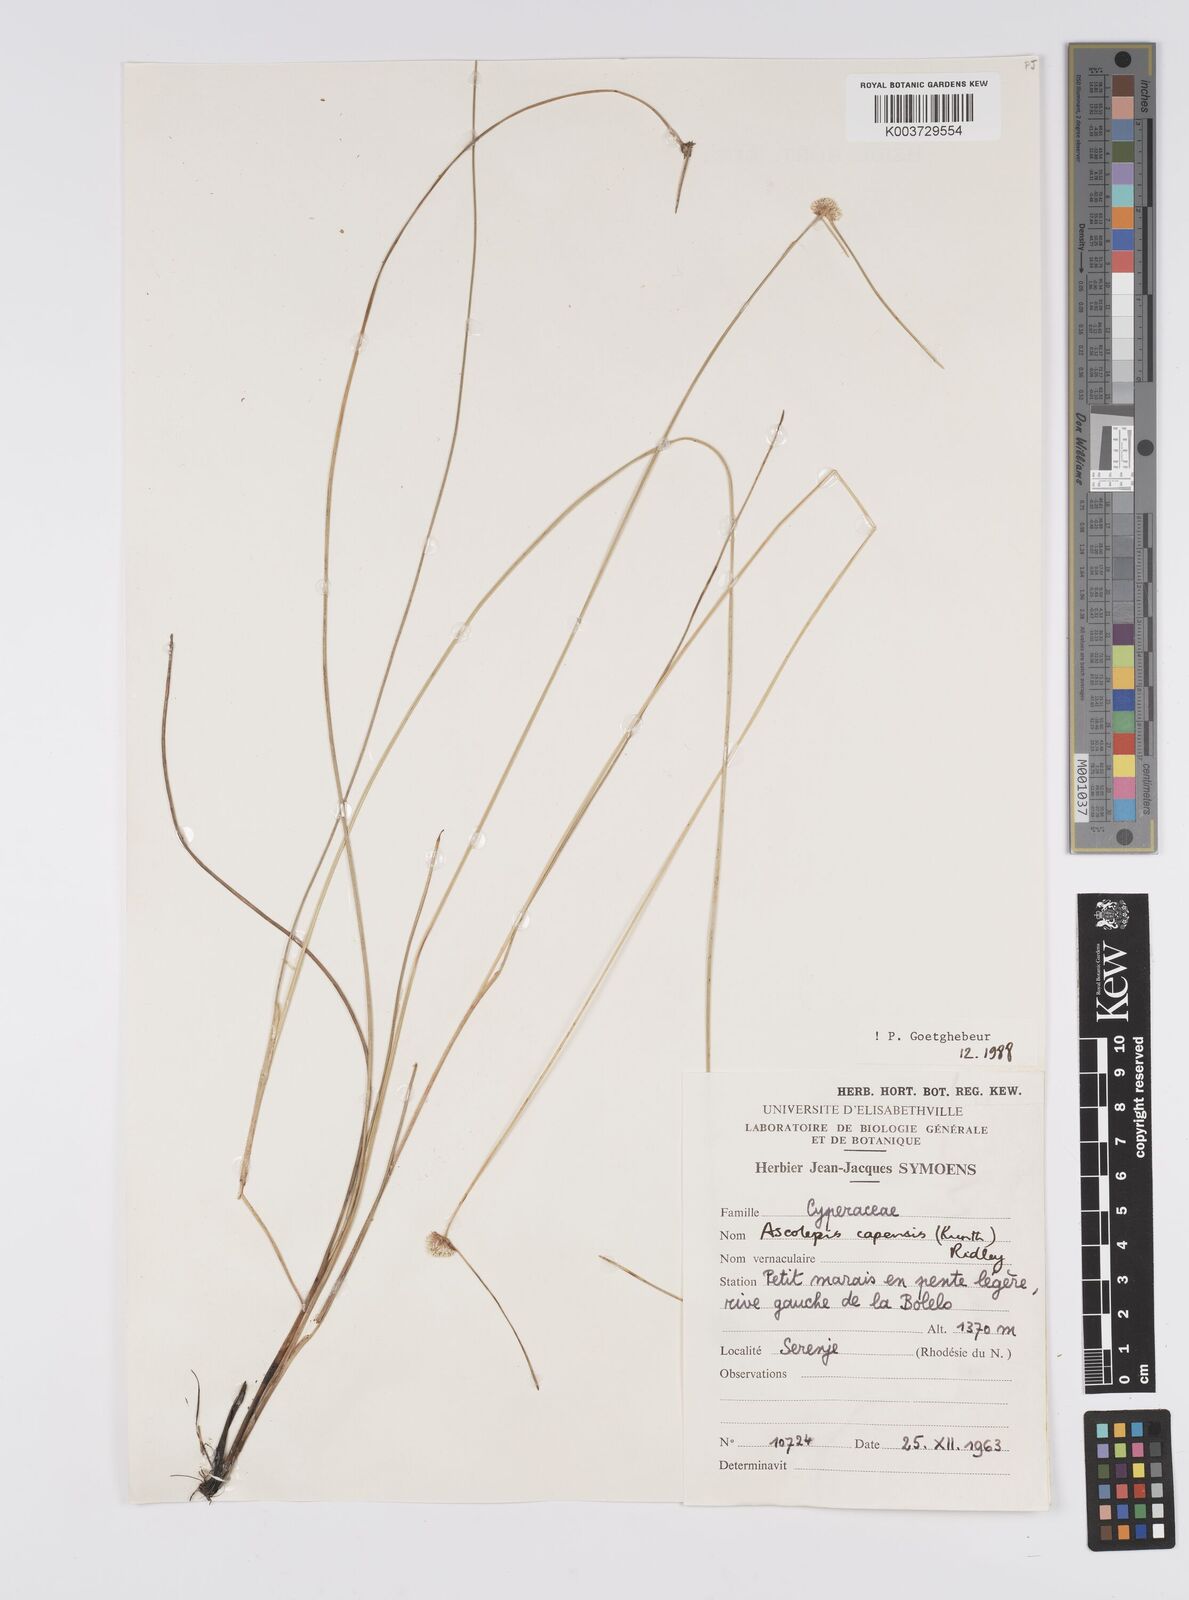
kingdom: Plantae
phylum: Tracheophyta
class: Liliopsida
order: Poales
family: Cyperaceae
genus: Cyperus
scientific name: Cyperus
